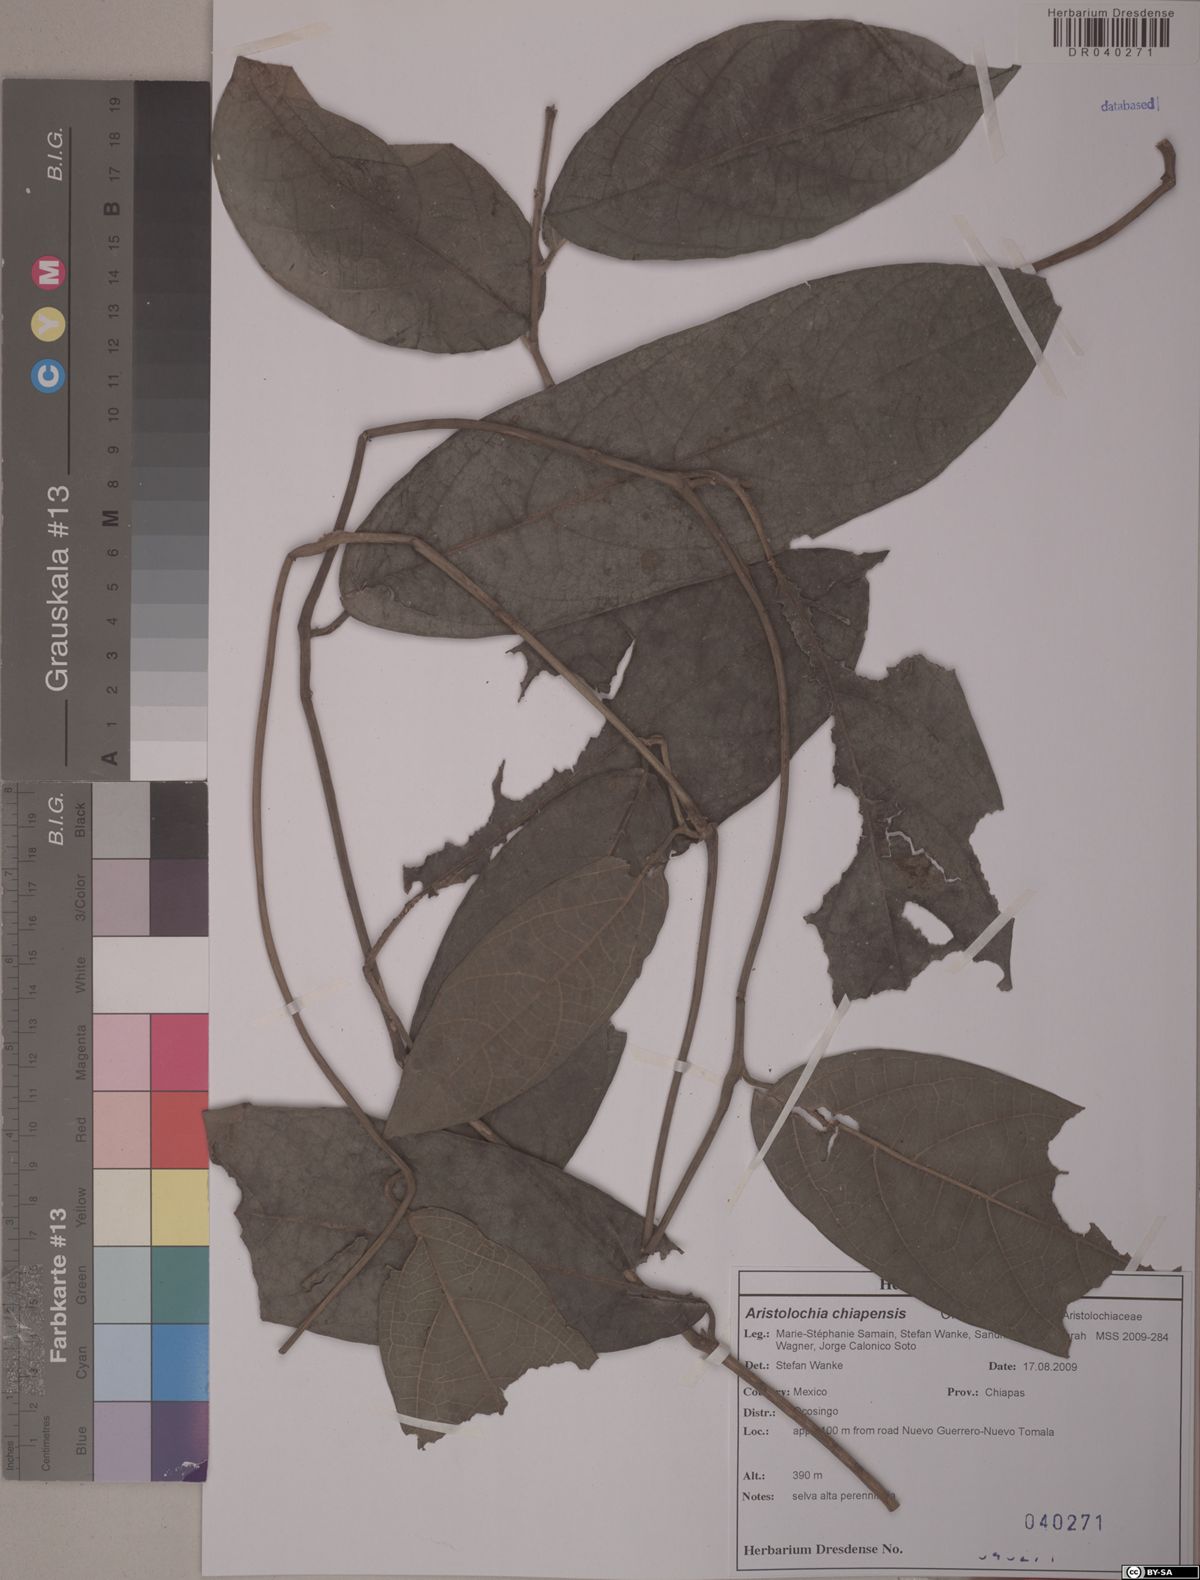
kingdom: Plantae
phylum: Tracheophyta
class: Magnoliopsida
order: Piperales
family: Aristolochiaceae
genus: Isotrema
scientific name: Isotrema paracletum
